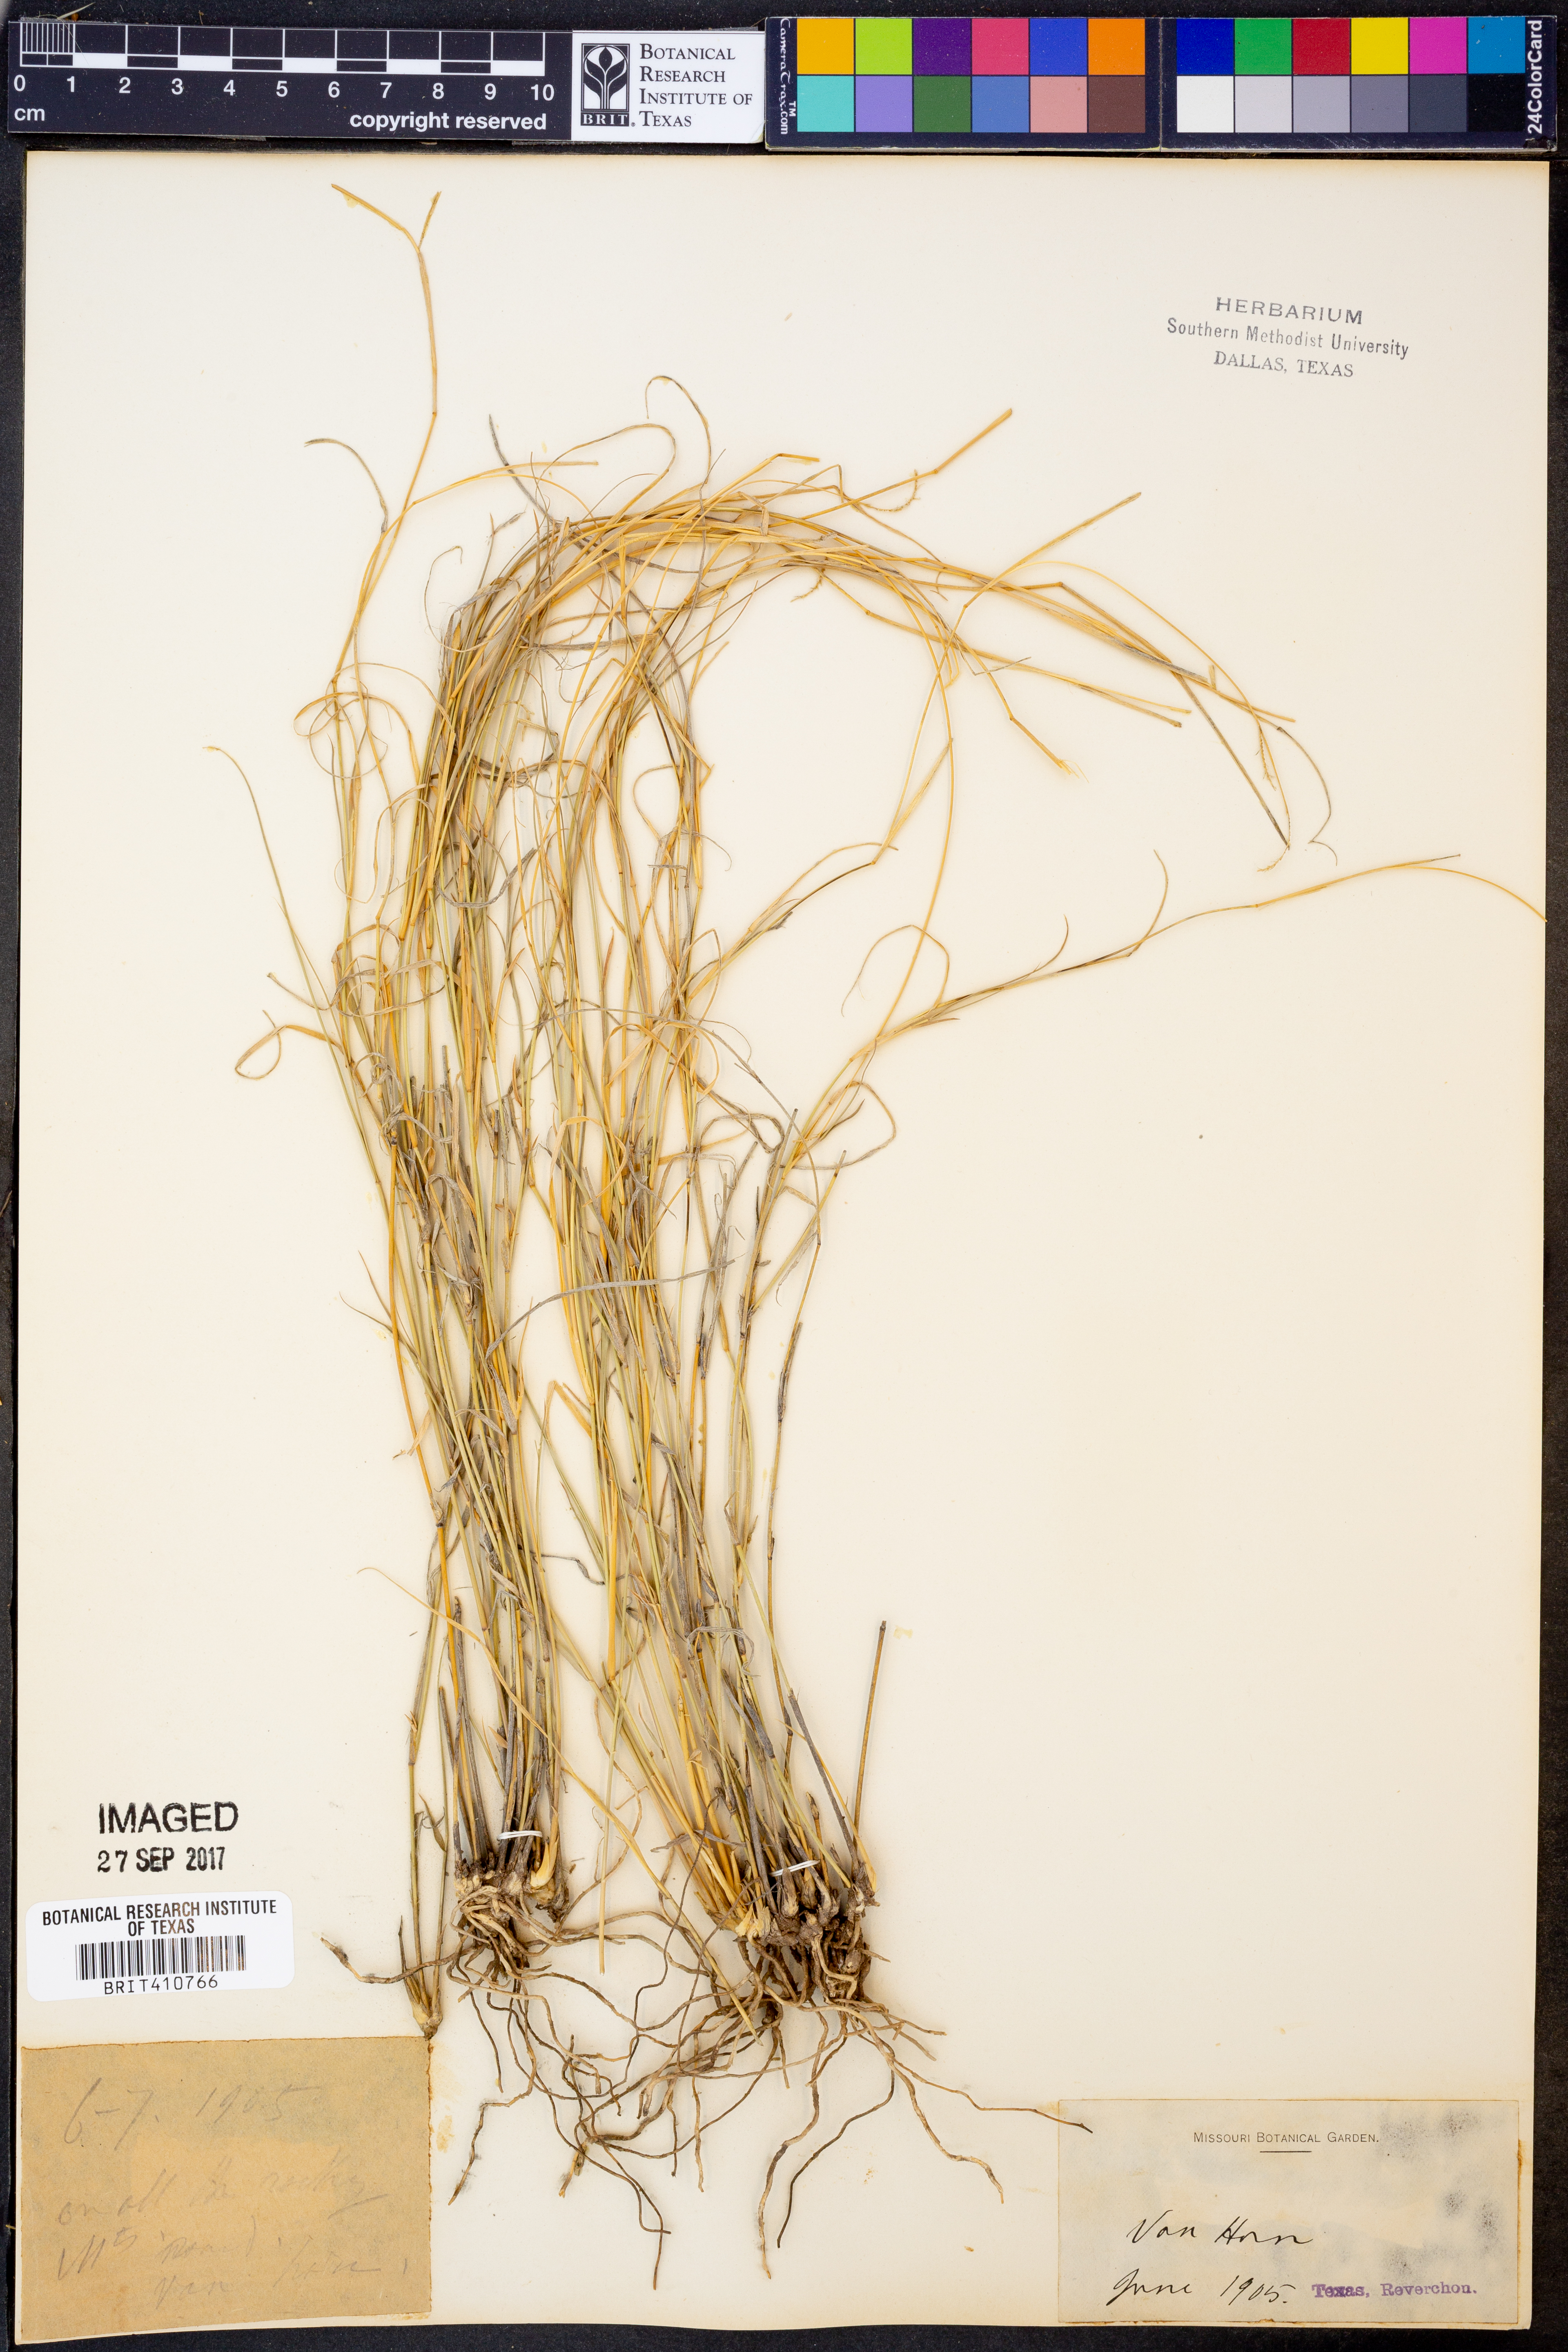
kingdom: Plantae
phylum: Tracheophyta
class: Liliopsida
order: Poales
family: Poaceae
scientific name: Poaceae
